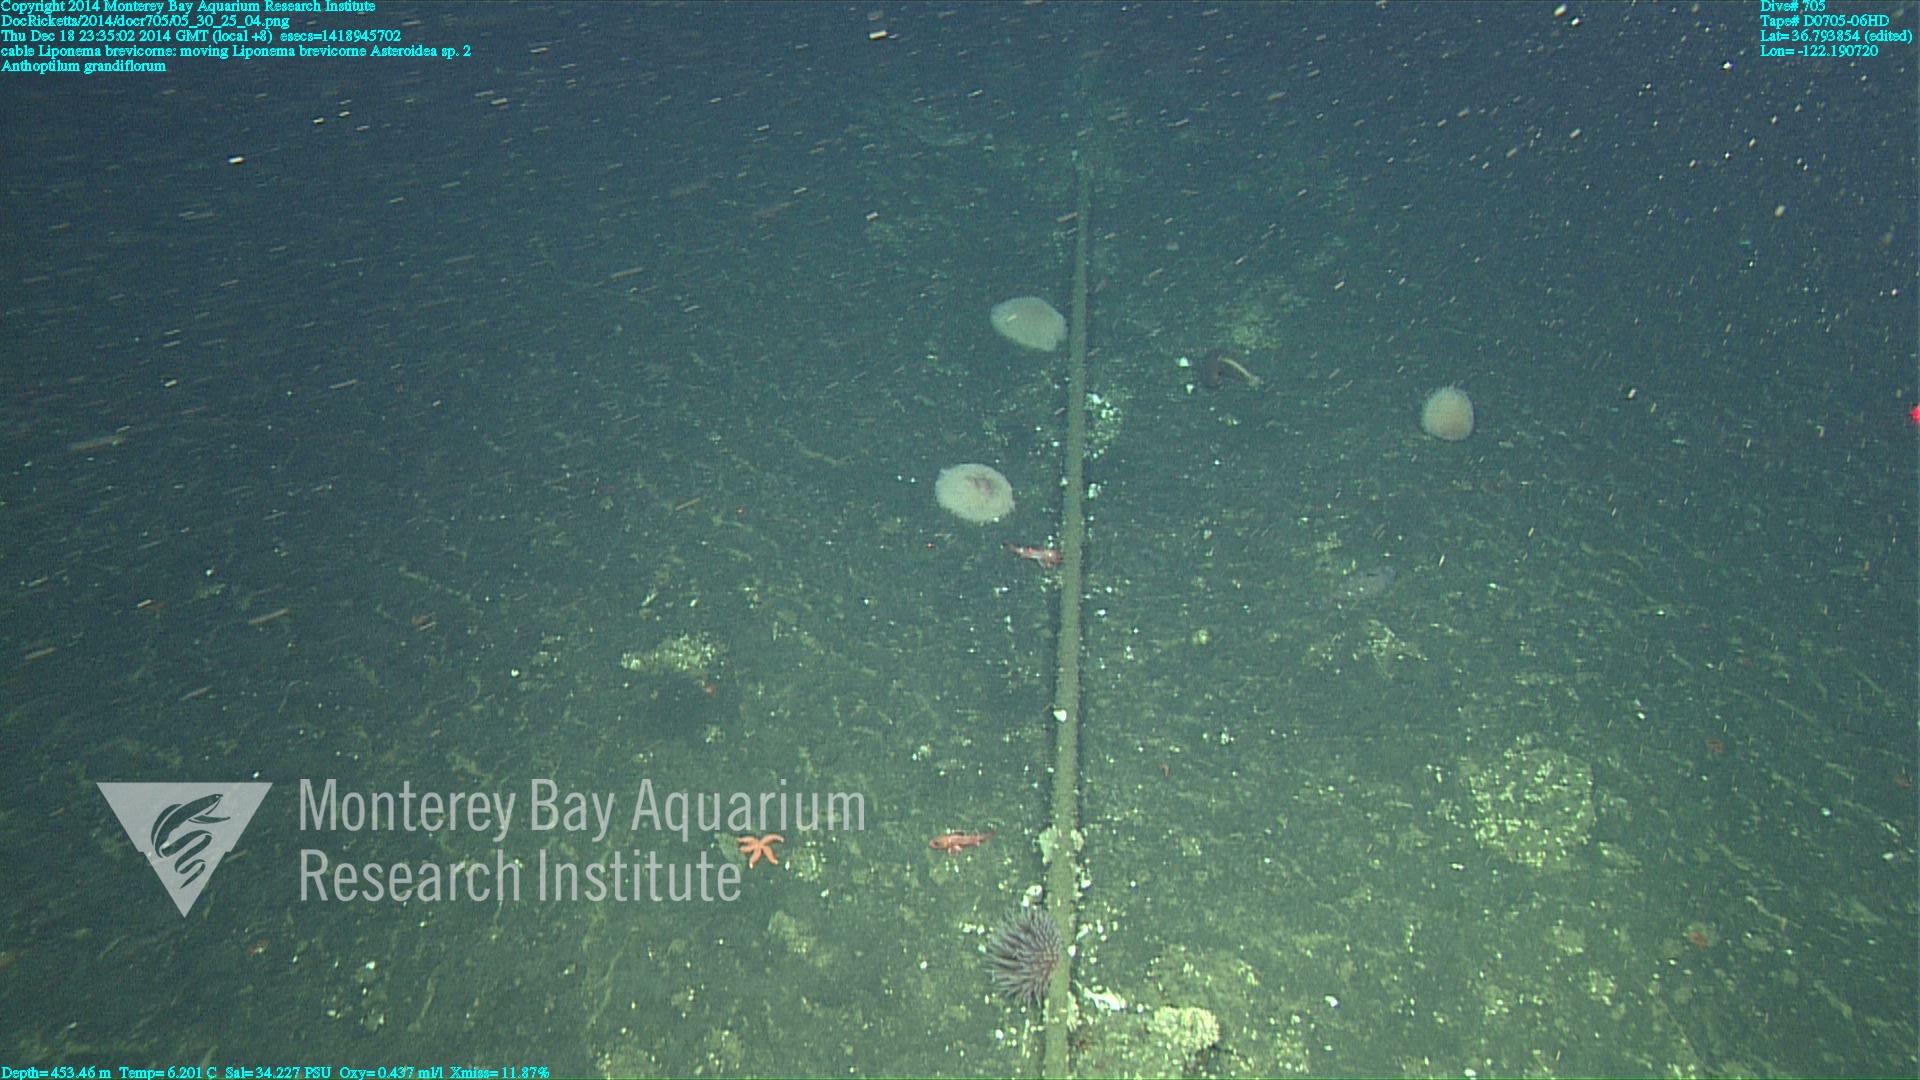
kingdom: Animalia
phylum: Cnidaria
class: Anthozoa
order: Scleralcyonacea
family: Anthoptilidae
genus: Anthoptilum
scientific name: Anthoptilum grandiflorum
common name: Full-flowered sea pen
